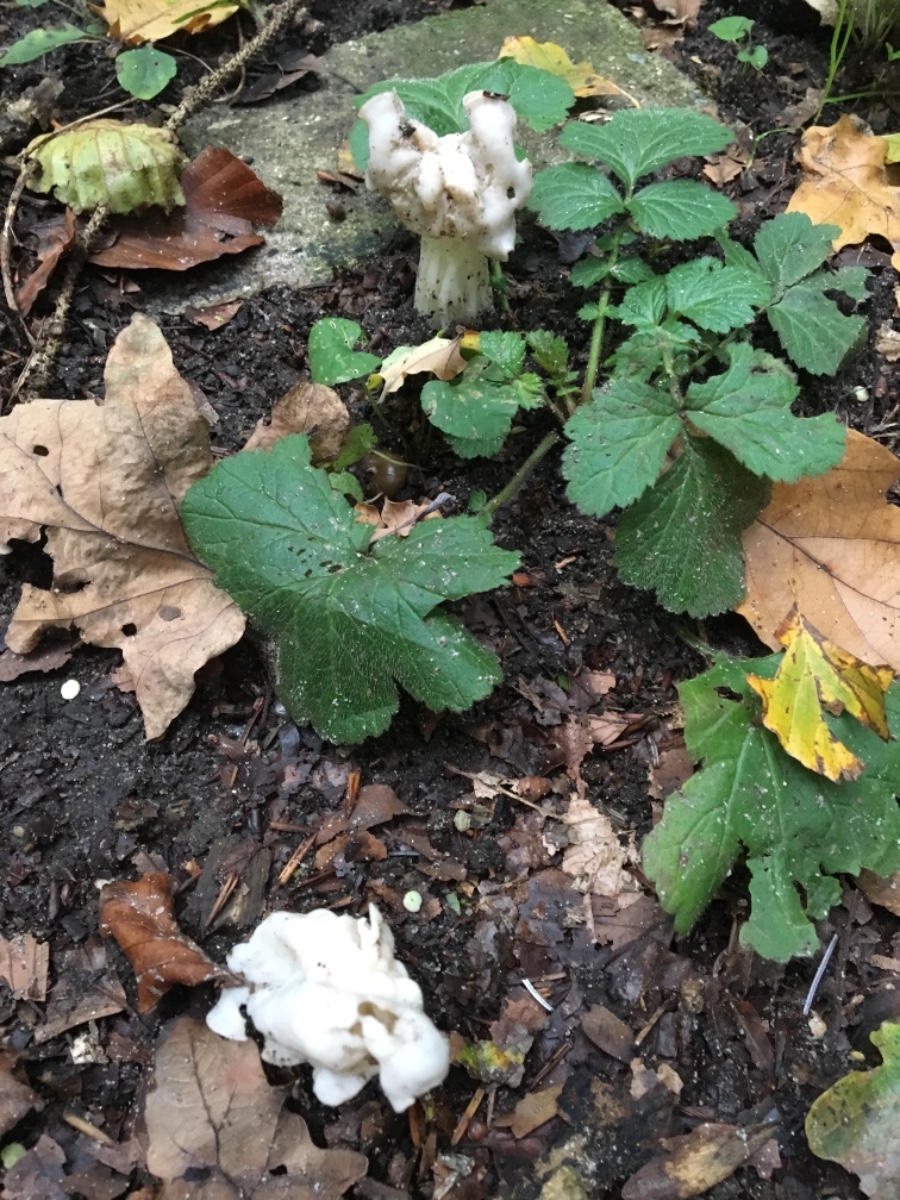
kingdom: Fungi
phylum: Ascomycota
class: Pezizomycetes
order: Pezizales
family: Helvellaceae
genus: Helvella
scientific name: Helvella crispa
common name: kruset foldhat
